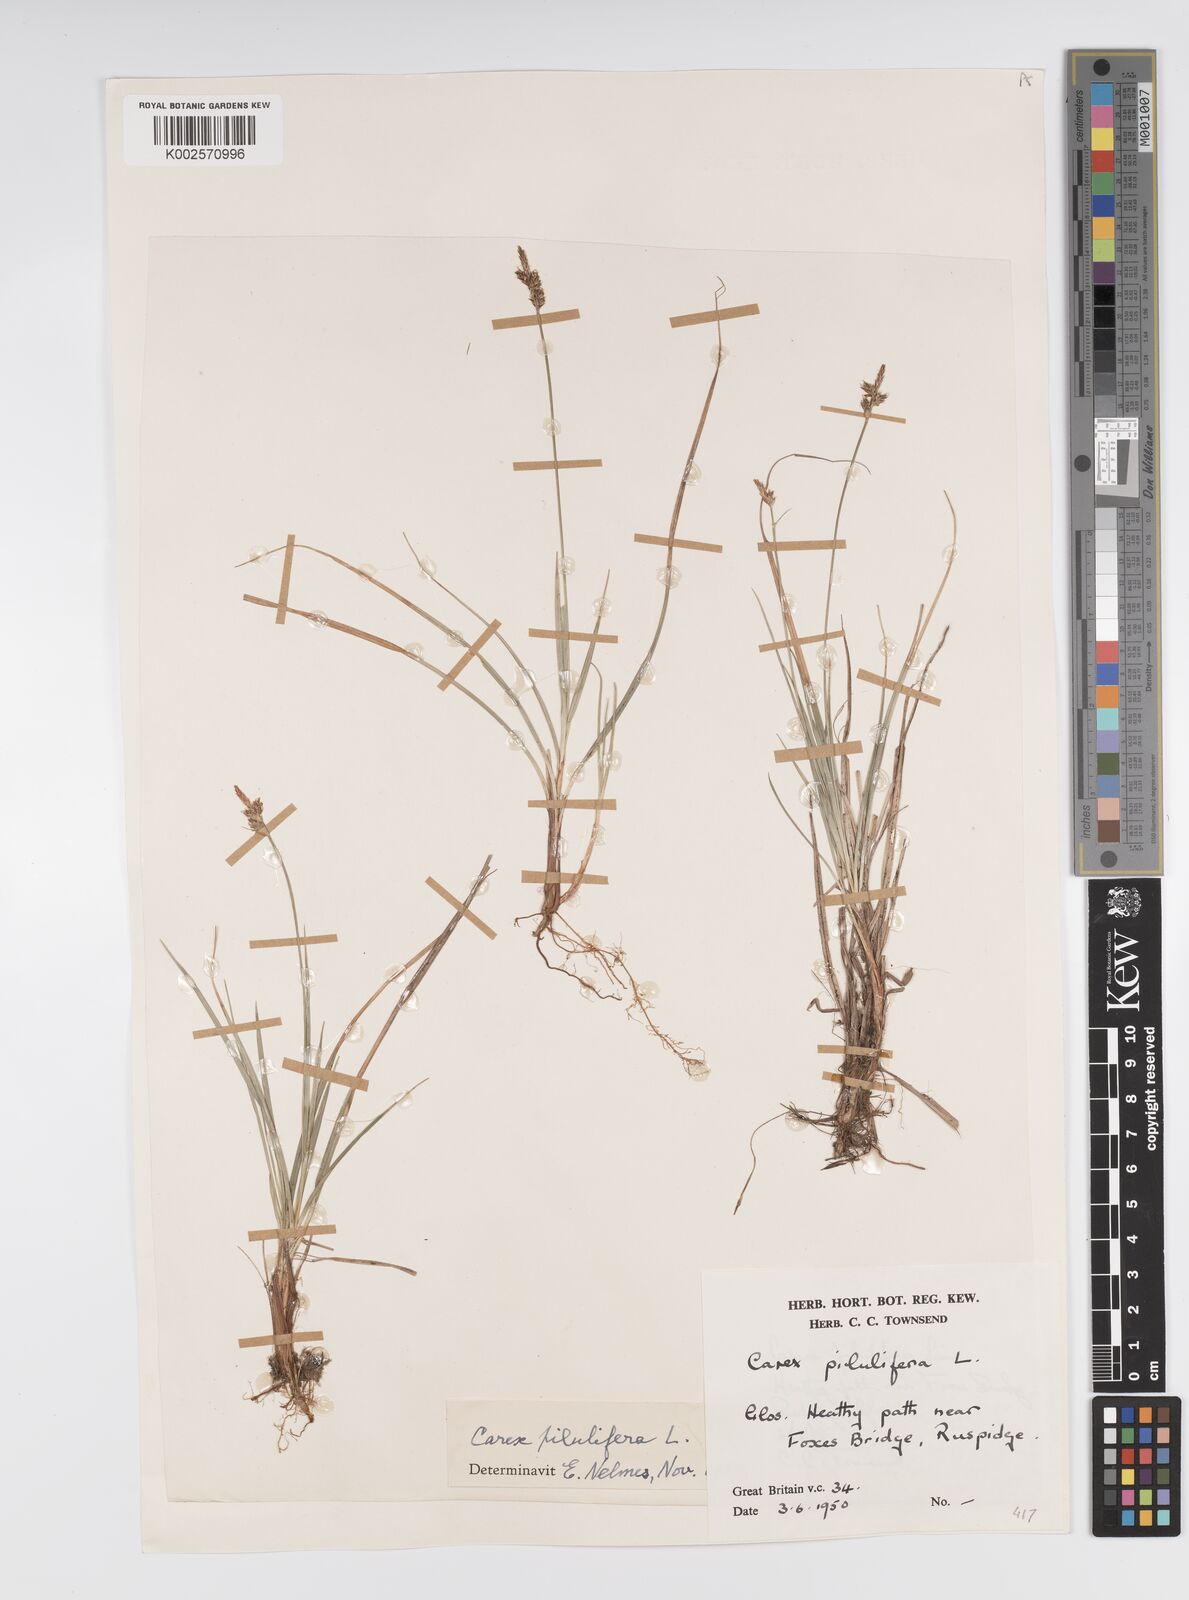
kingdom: Plantae
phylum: Tracheophyta
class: Liliopsida
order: Poales
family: Cyperaceae
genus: Carex
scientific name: Carex praecox
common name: Early sedge
